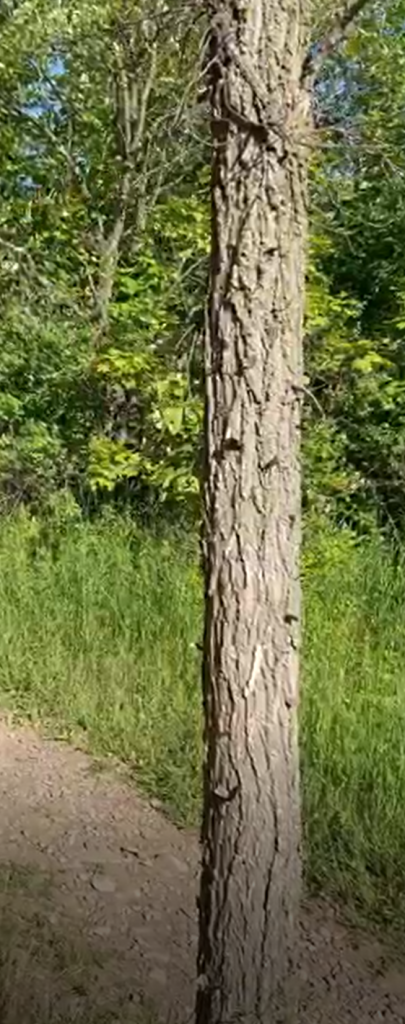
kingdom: Animalia
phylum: Arthropoda
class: Insecta
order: Lepidoptera
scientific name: Lepidoptera
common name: Butterflies
